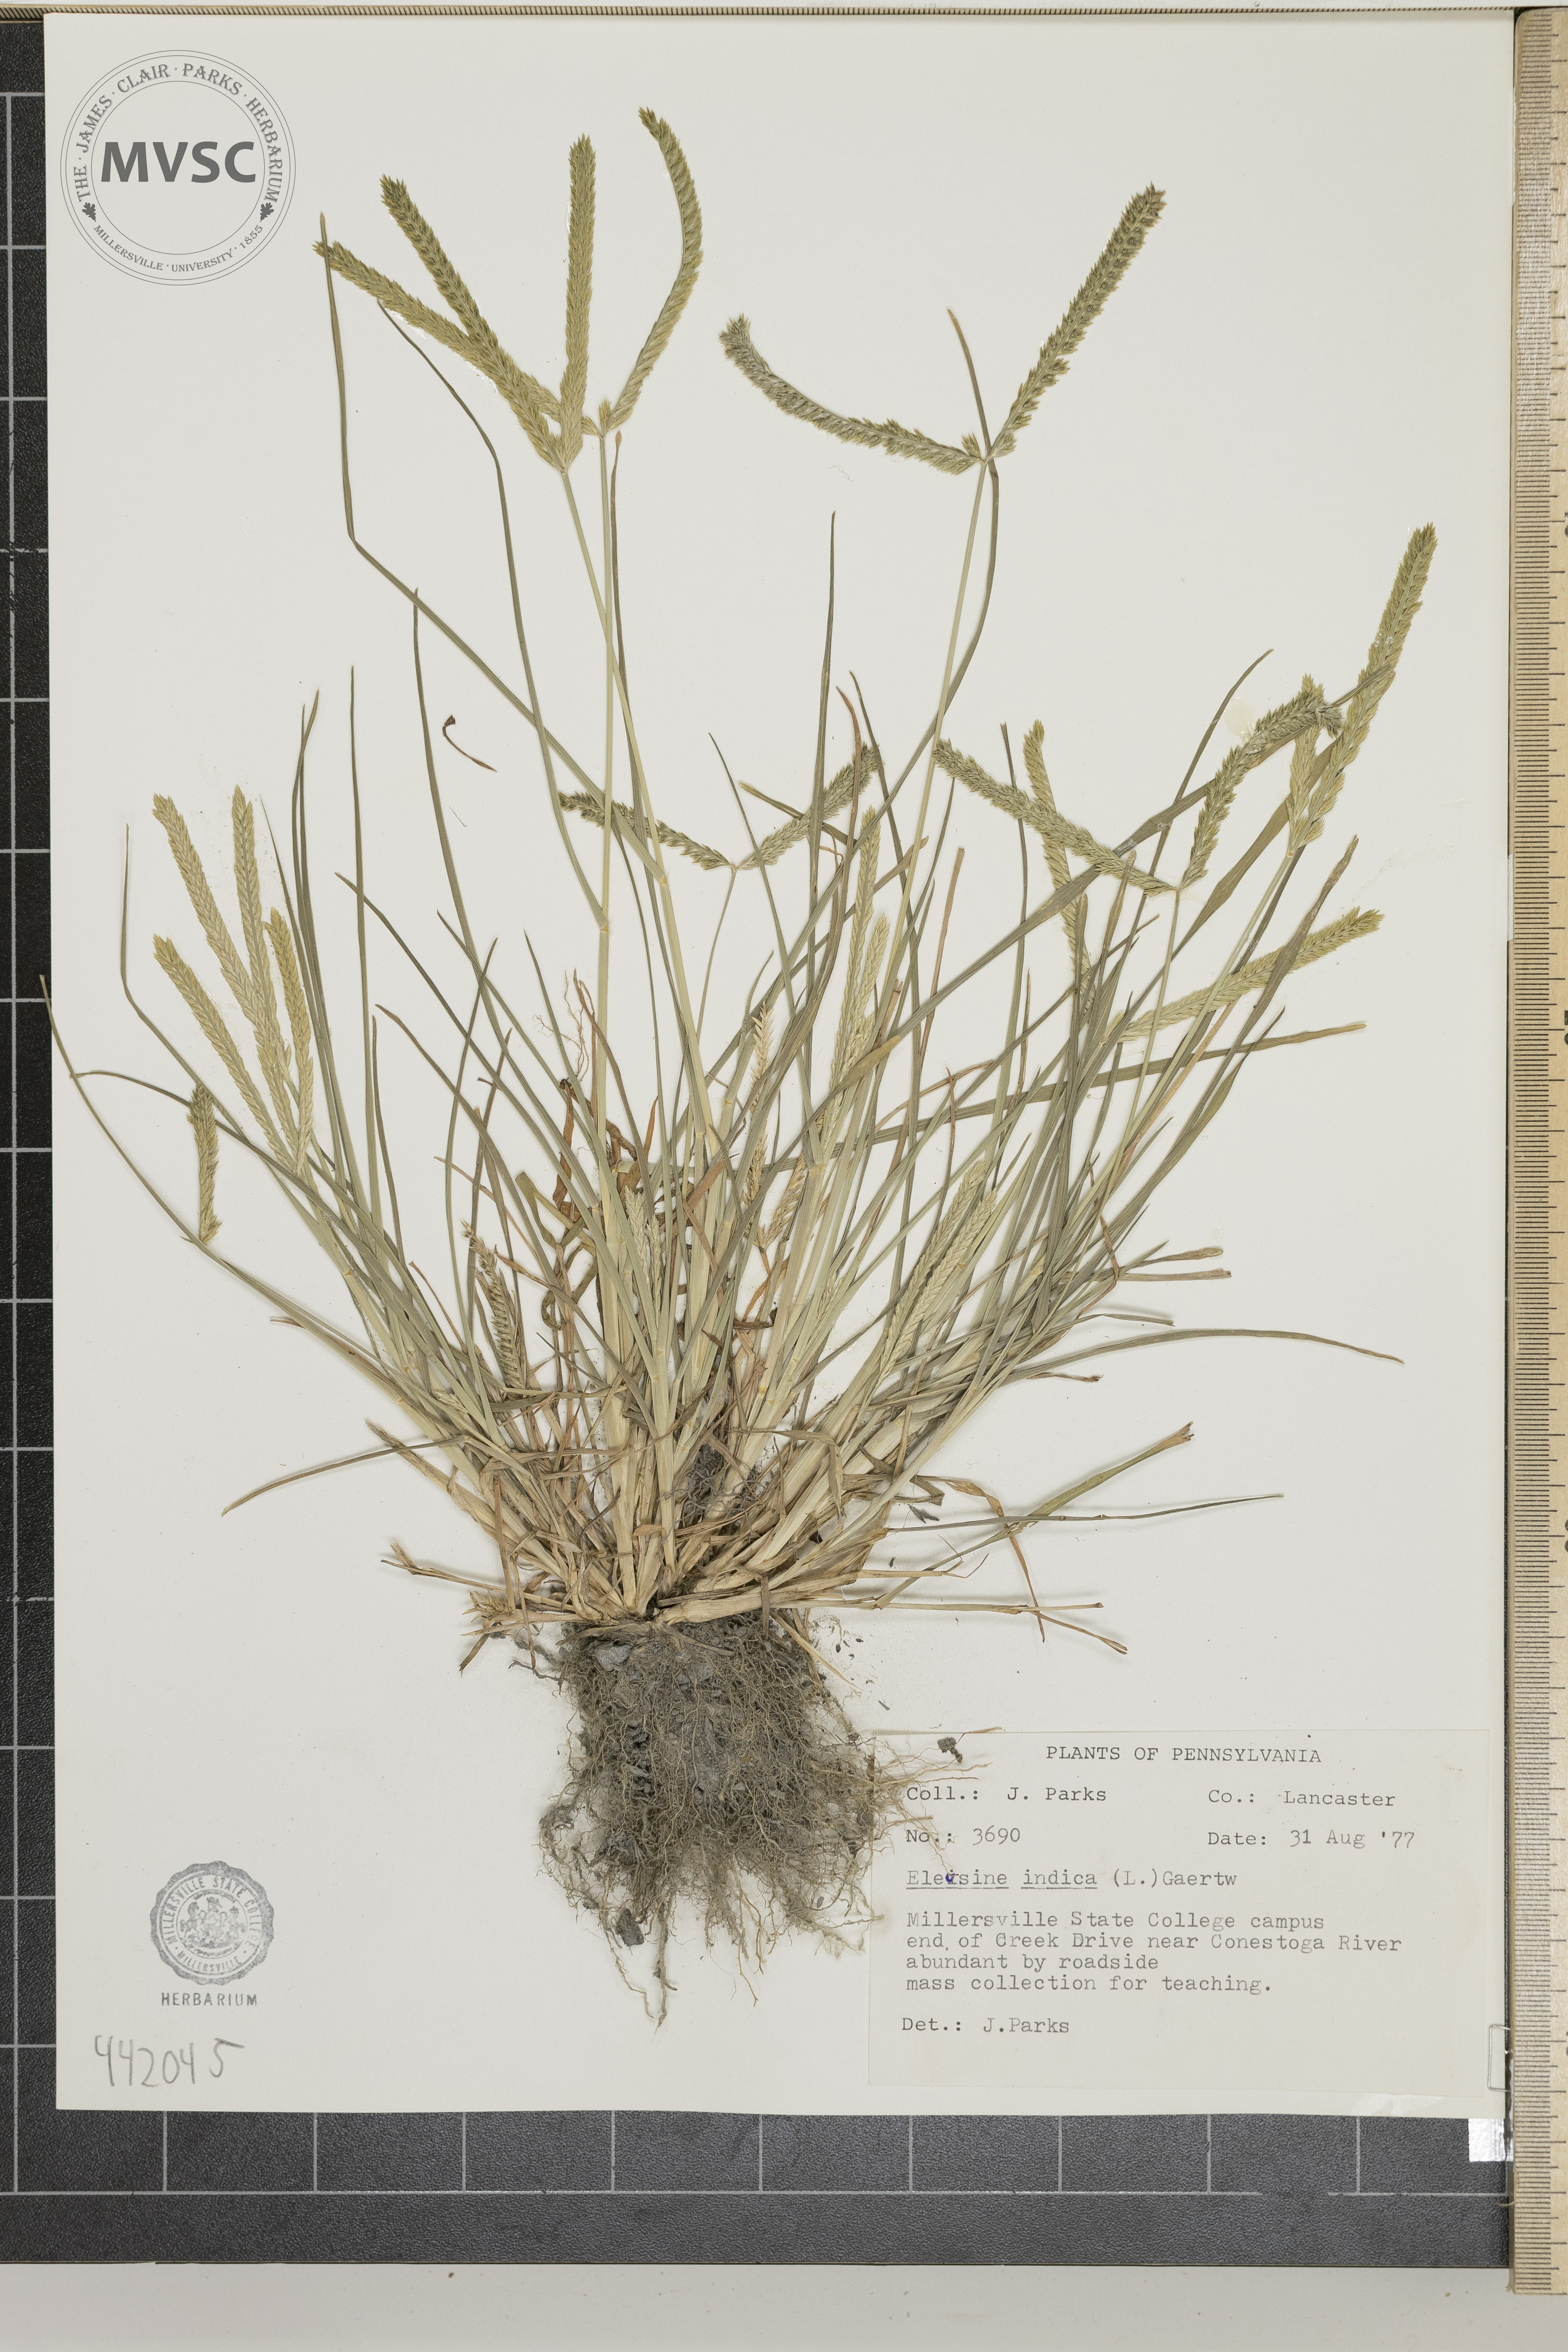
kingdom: Plantae
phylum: Tracheophyta
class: Liliopsida
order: Poales
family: Poaceae
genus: Eleusine
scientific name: Eleusine indica
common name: Yard-grass
